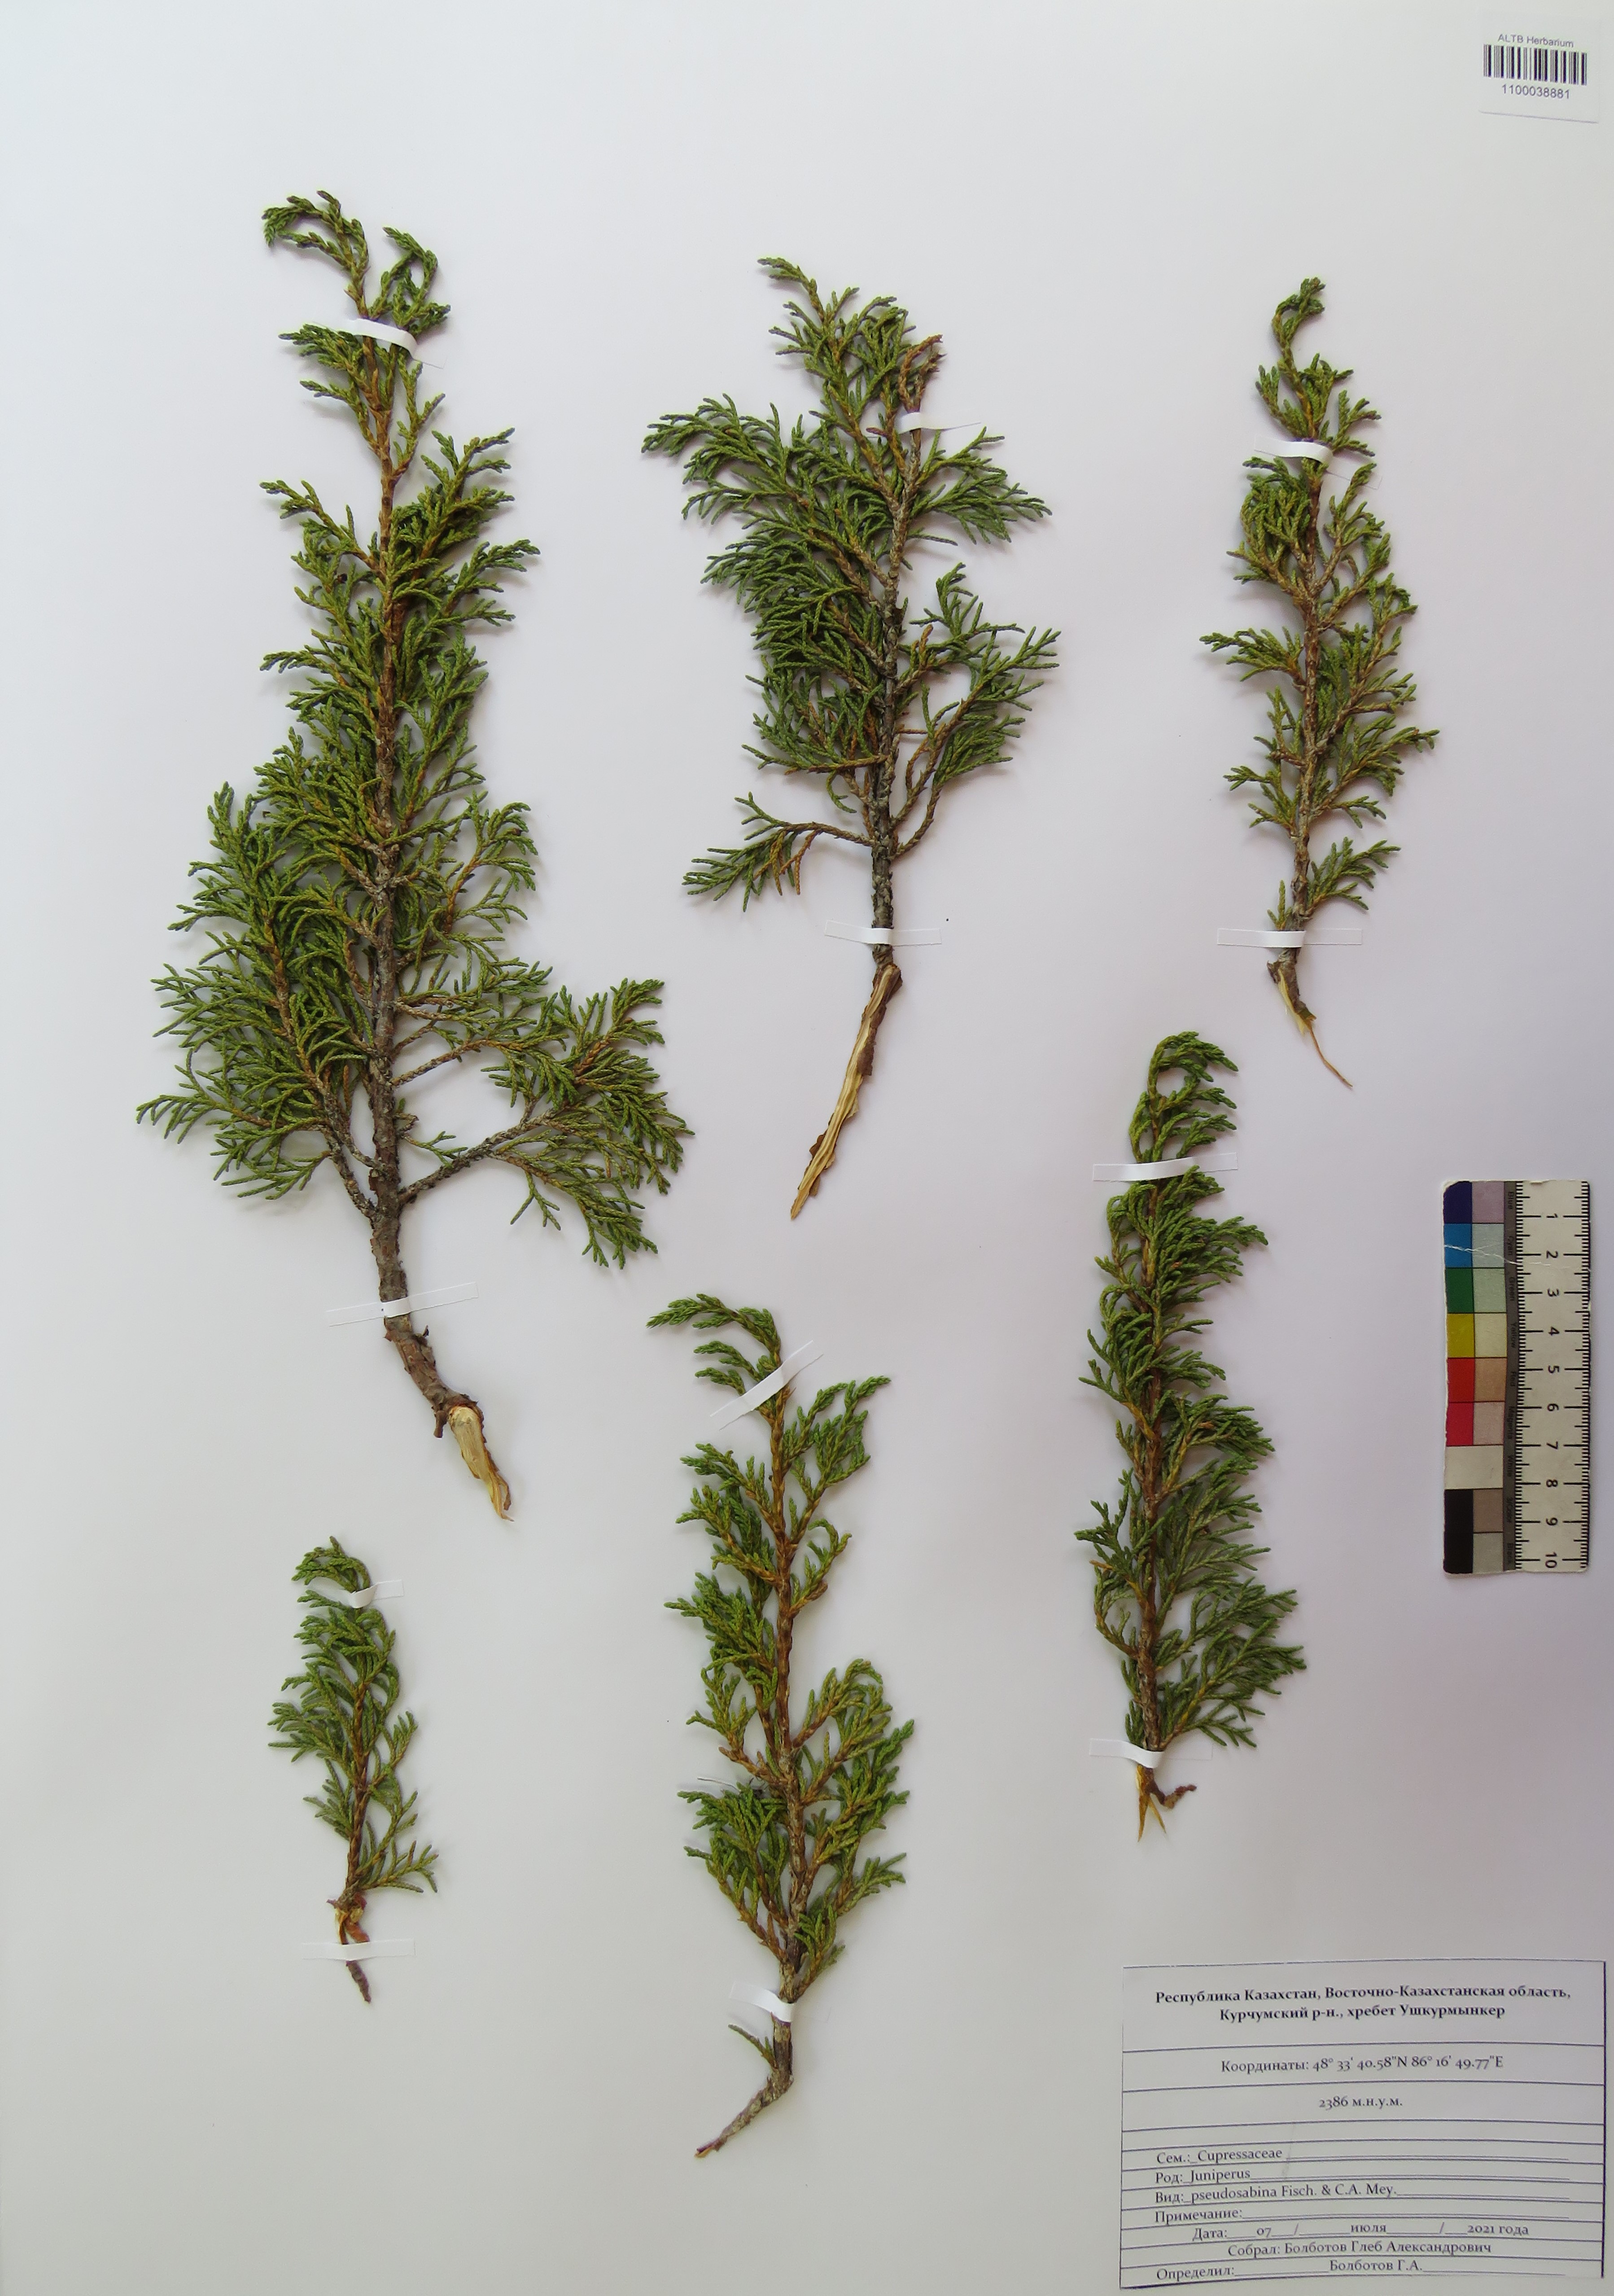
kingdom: Plantae
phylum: Tracheophyta
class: Pinopsida
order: Pinales
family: Cupressaceae
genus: Juniperus
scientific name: Juniperus pseudosabina
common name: Turkestan juniper
